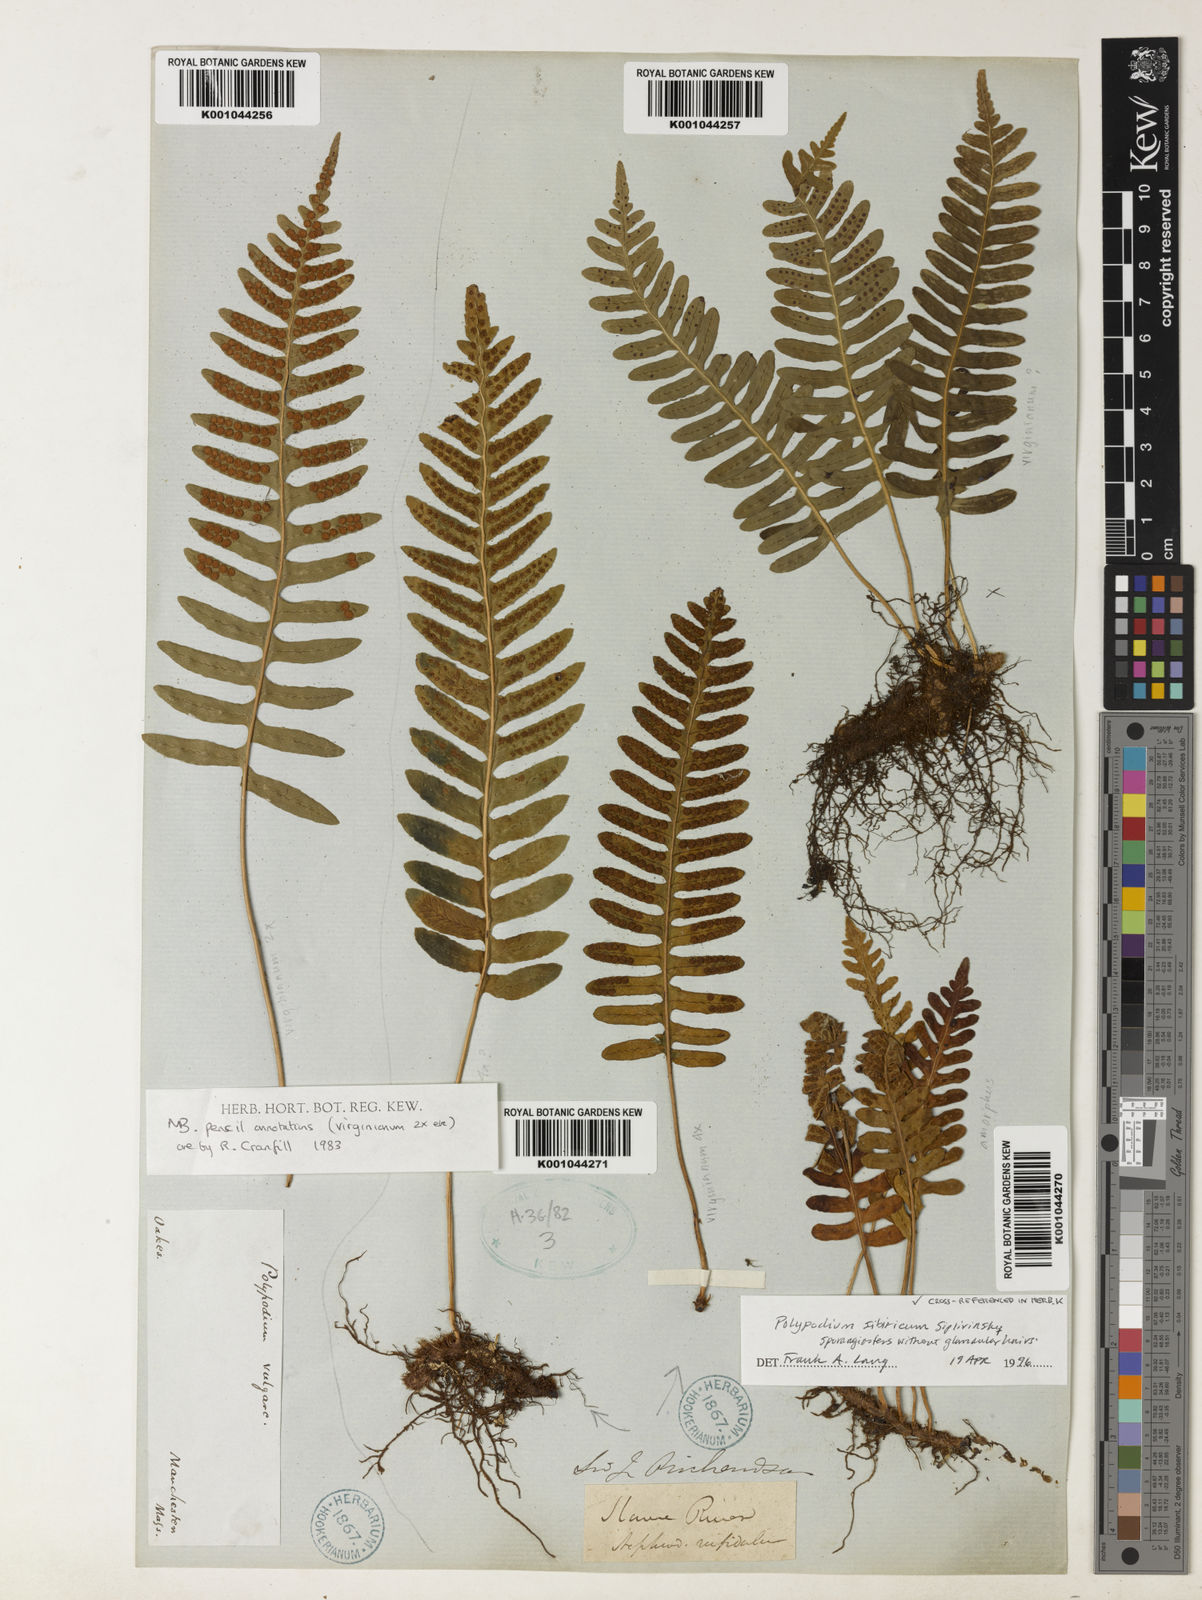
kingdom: Plantae
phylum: Tracheophyta
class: Polypodiopsida
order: Polypodiales
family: Polypodiaceae
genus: Polypodium
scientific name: Polypodium virginianum
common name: American wall fern
